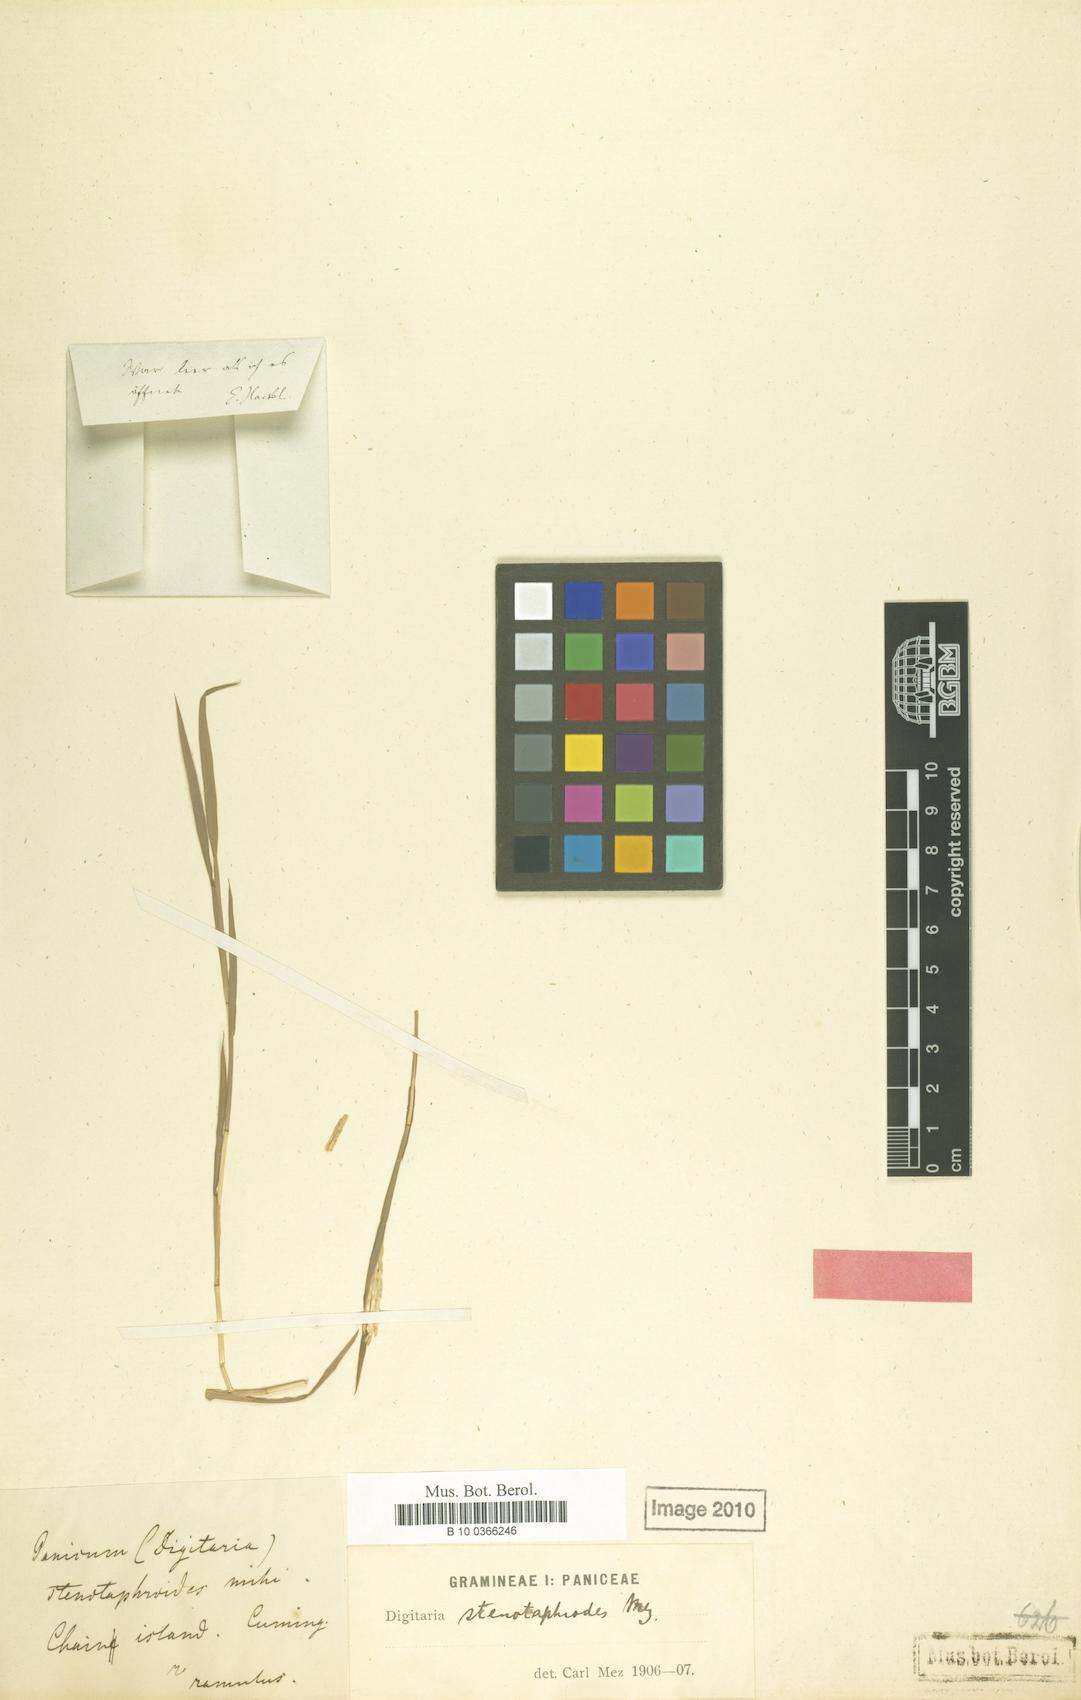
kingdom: Plantae
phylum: Tracheophyta
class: Liliopsida
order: Poales
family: Poaceae
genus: Digitaria
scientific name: Digitaria stenotaphroides
